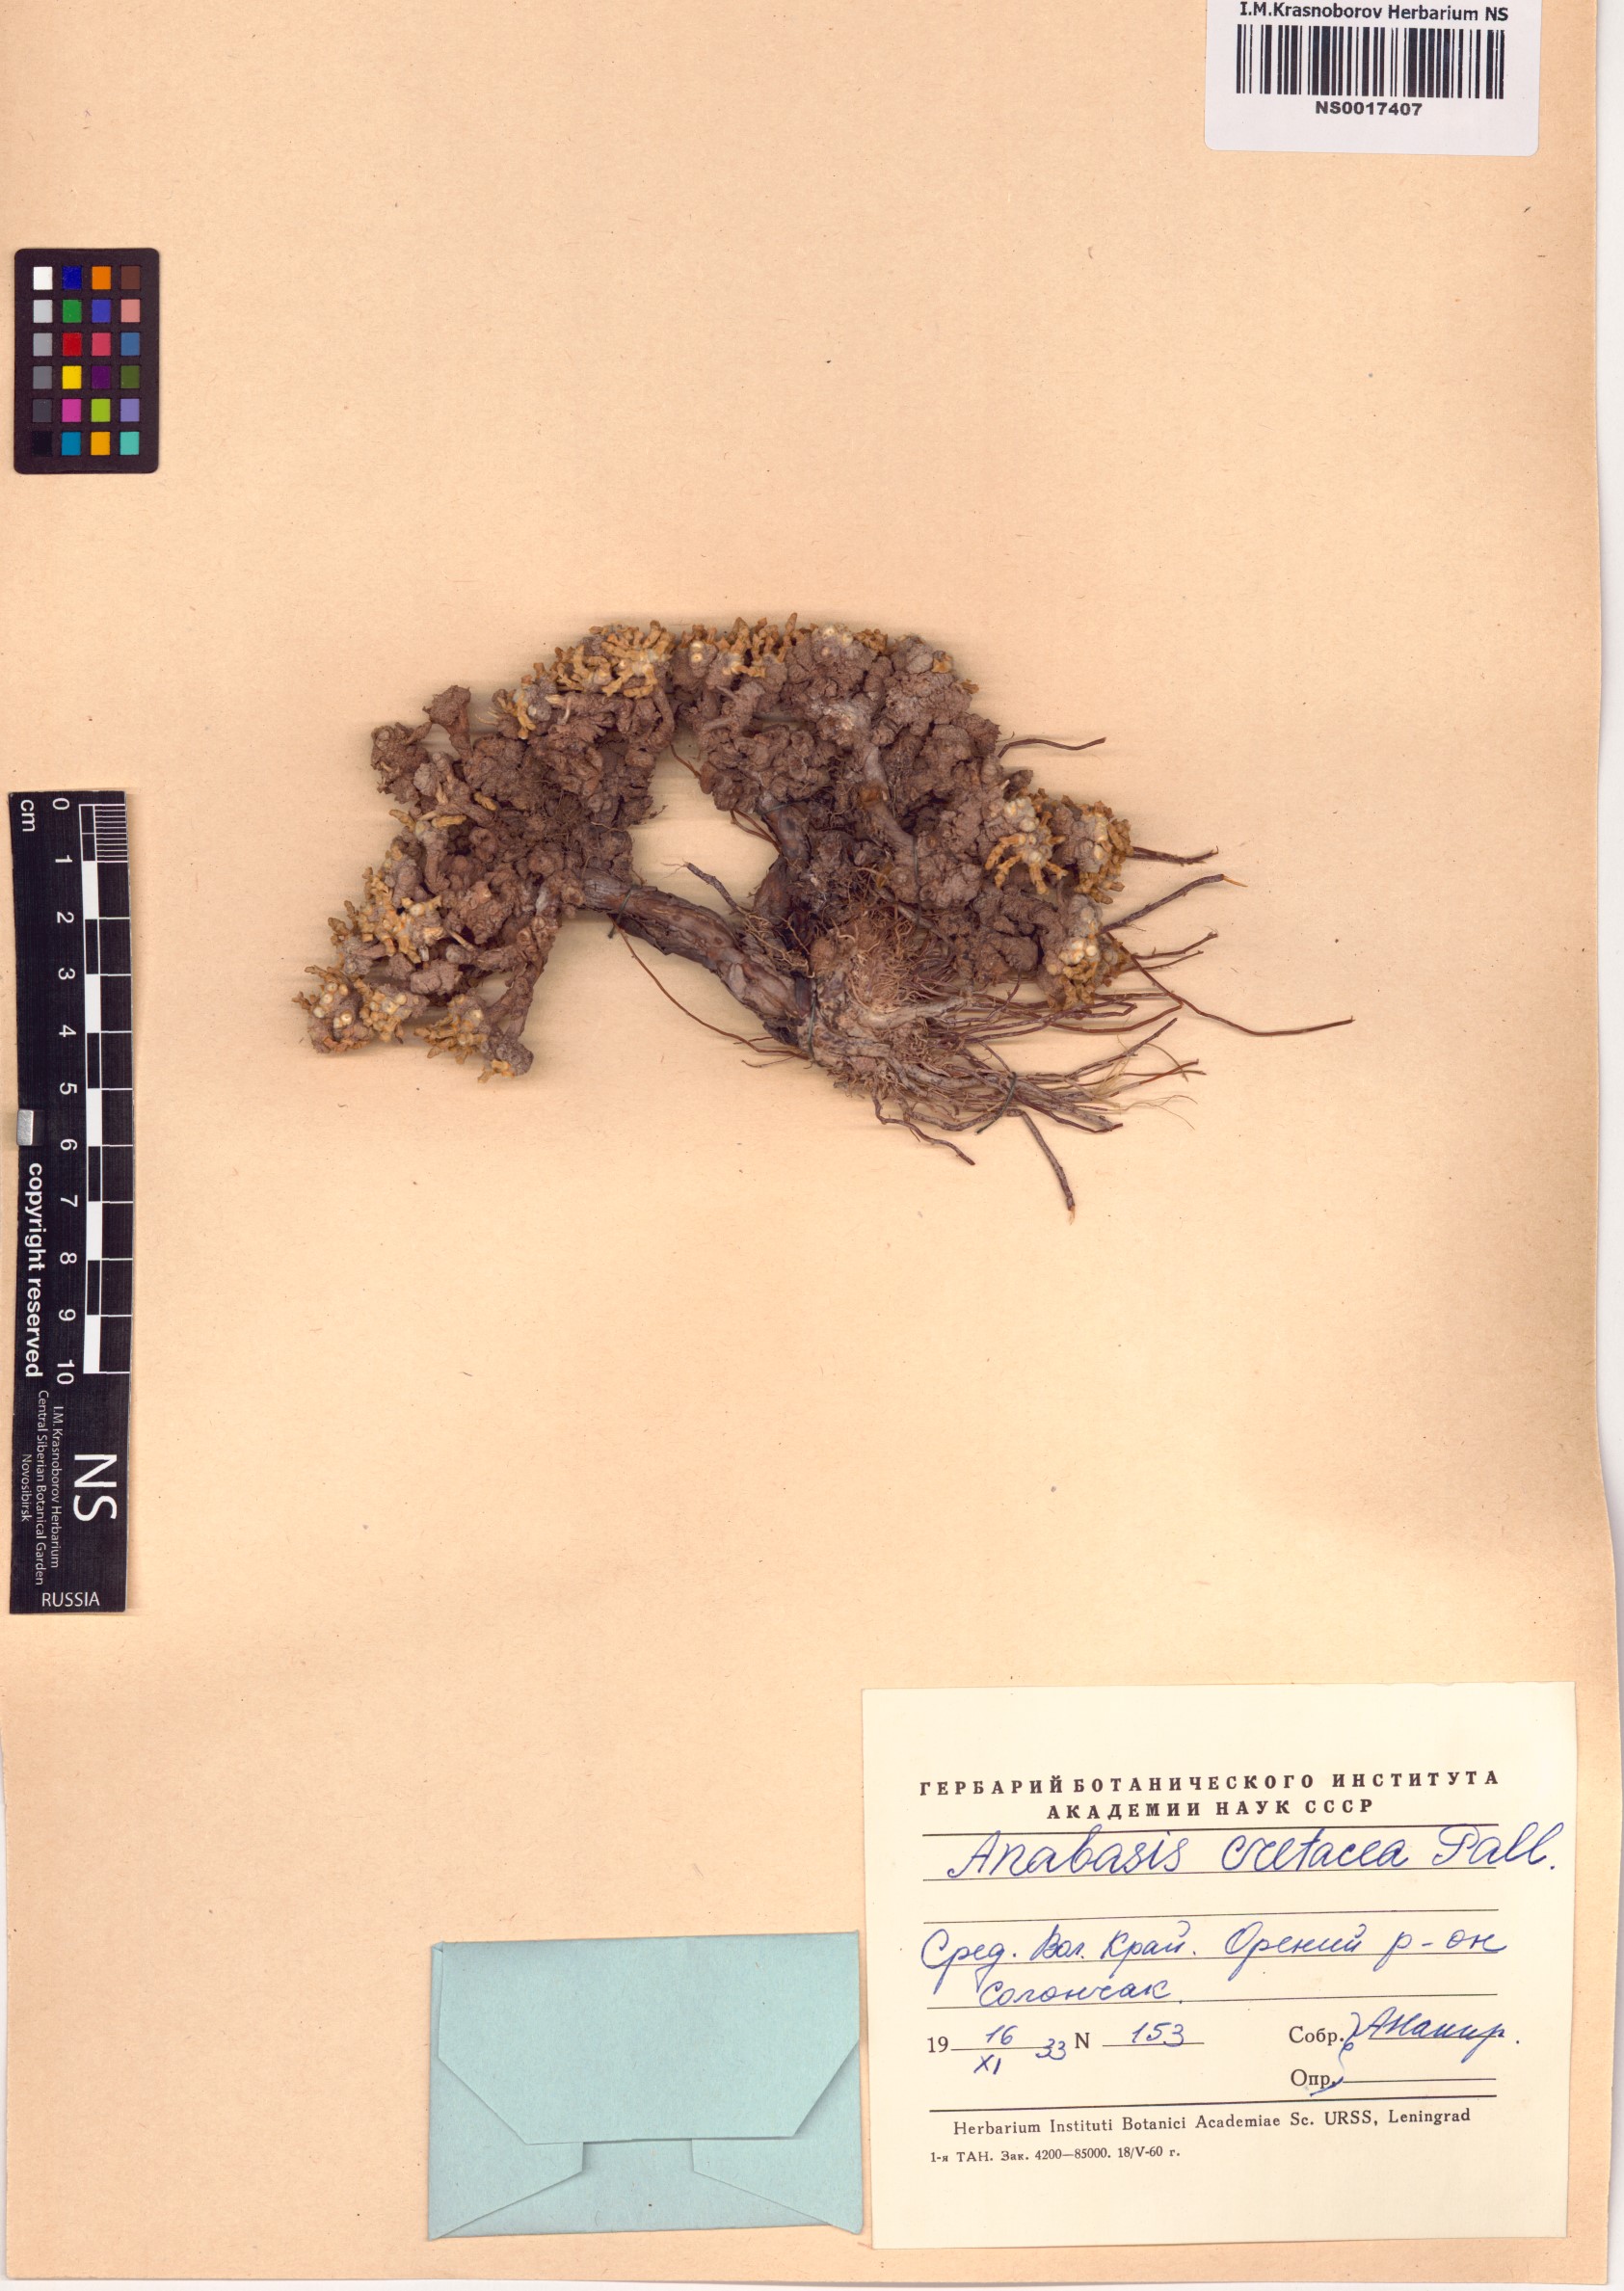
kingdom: Plantae
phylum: Tracheophyta
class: Magnoliopsida
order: Caryophyllales
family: Amaranthaceae
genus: Anabasis
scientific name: Anabasis cretacea
